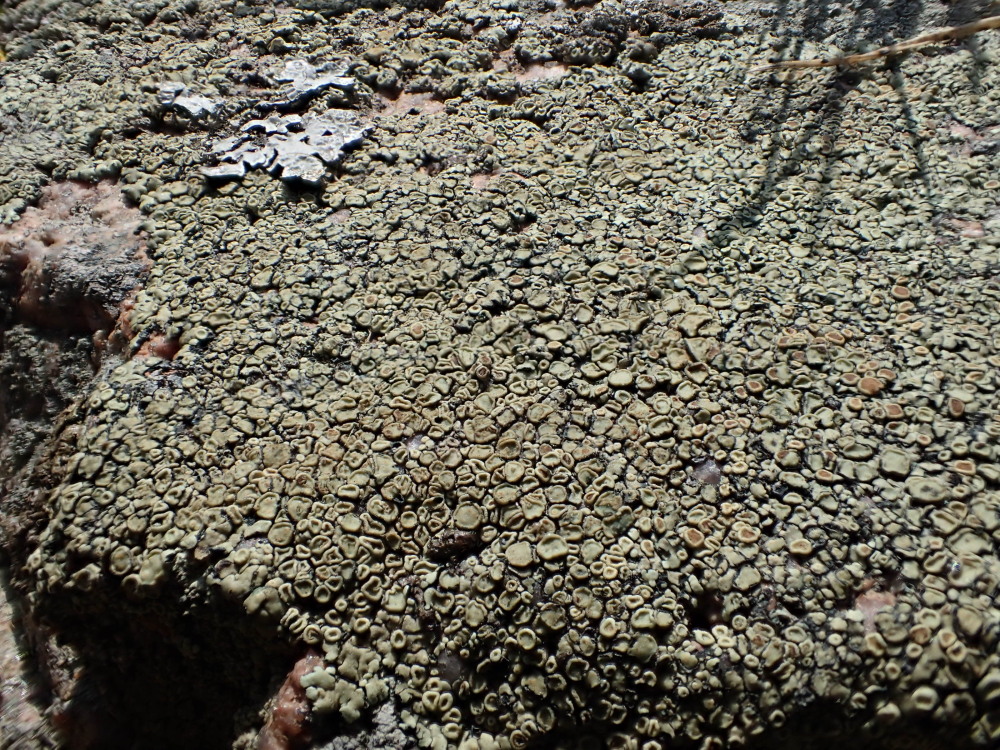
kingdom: Fungi
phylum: Ascomycota
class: Lecanoromycetes
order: Lecanorales
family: Lecanoraceae
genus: Protoparmeliopsis
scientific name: Protoparmeliopsis muralis
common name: randfliget kantskivelav
